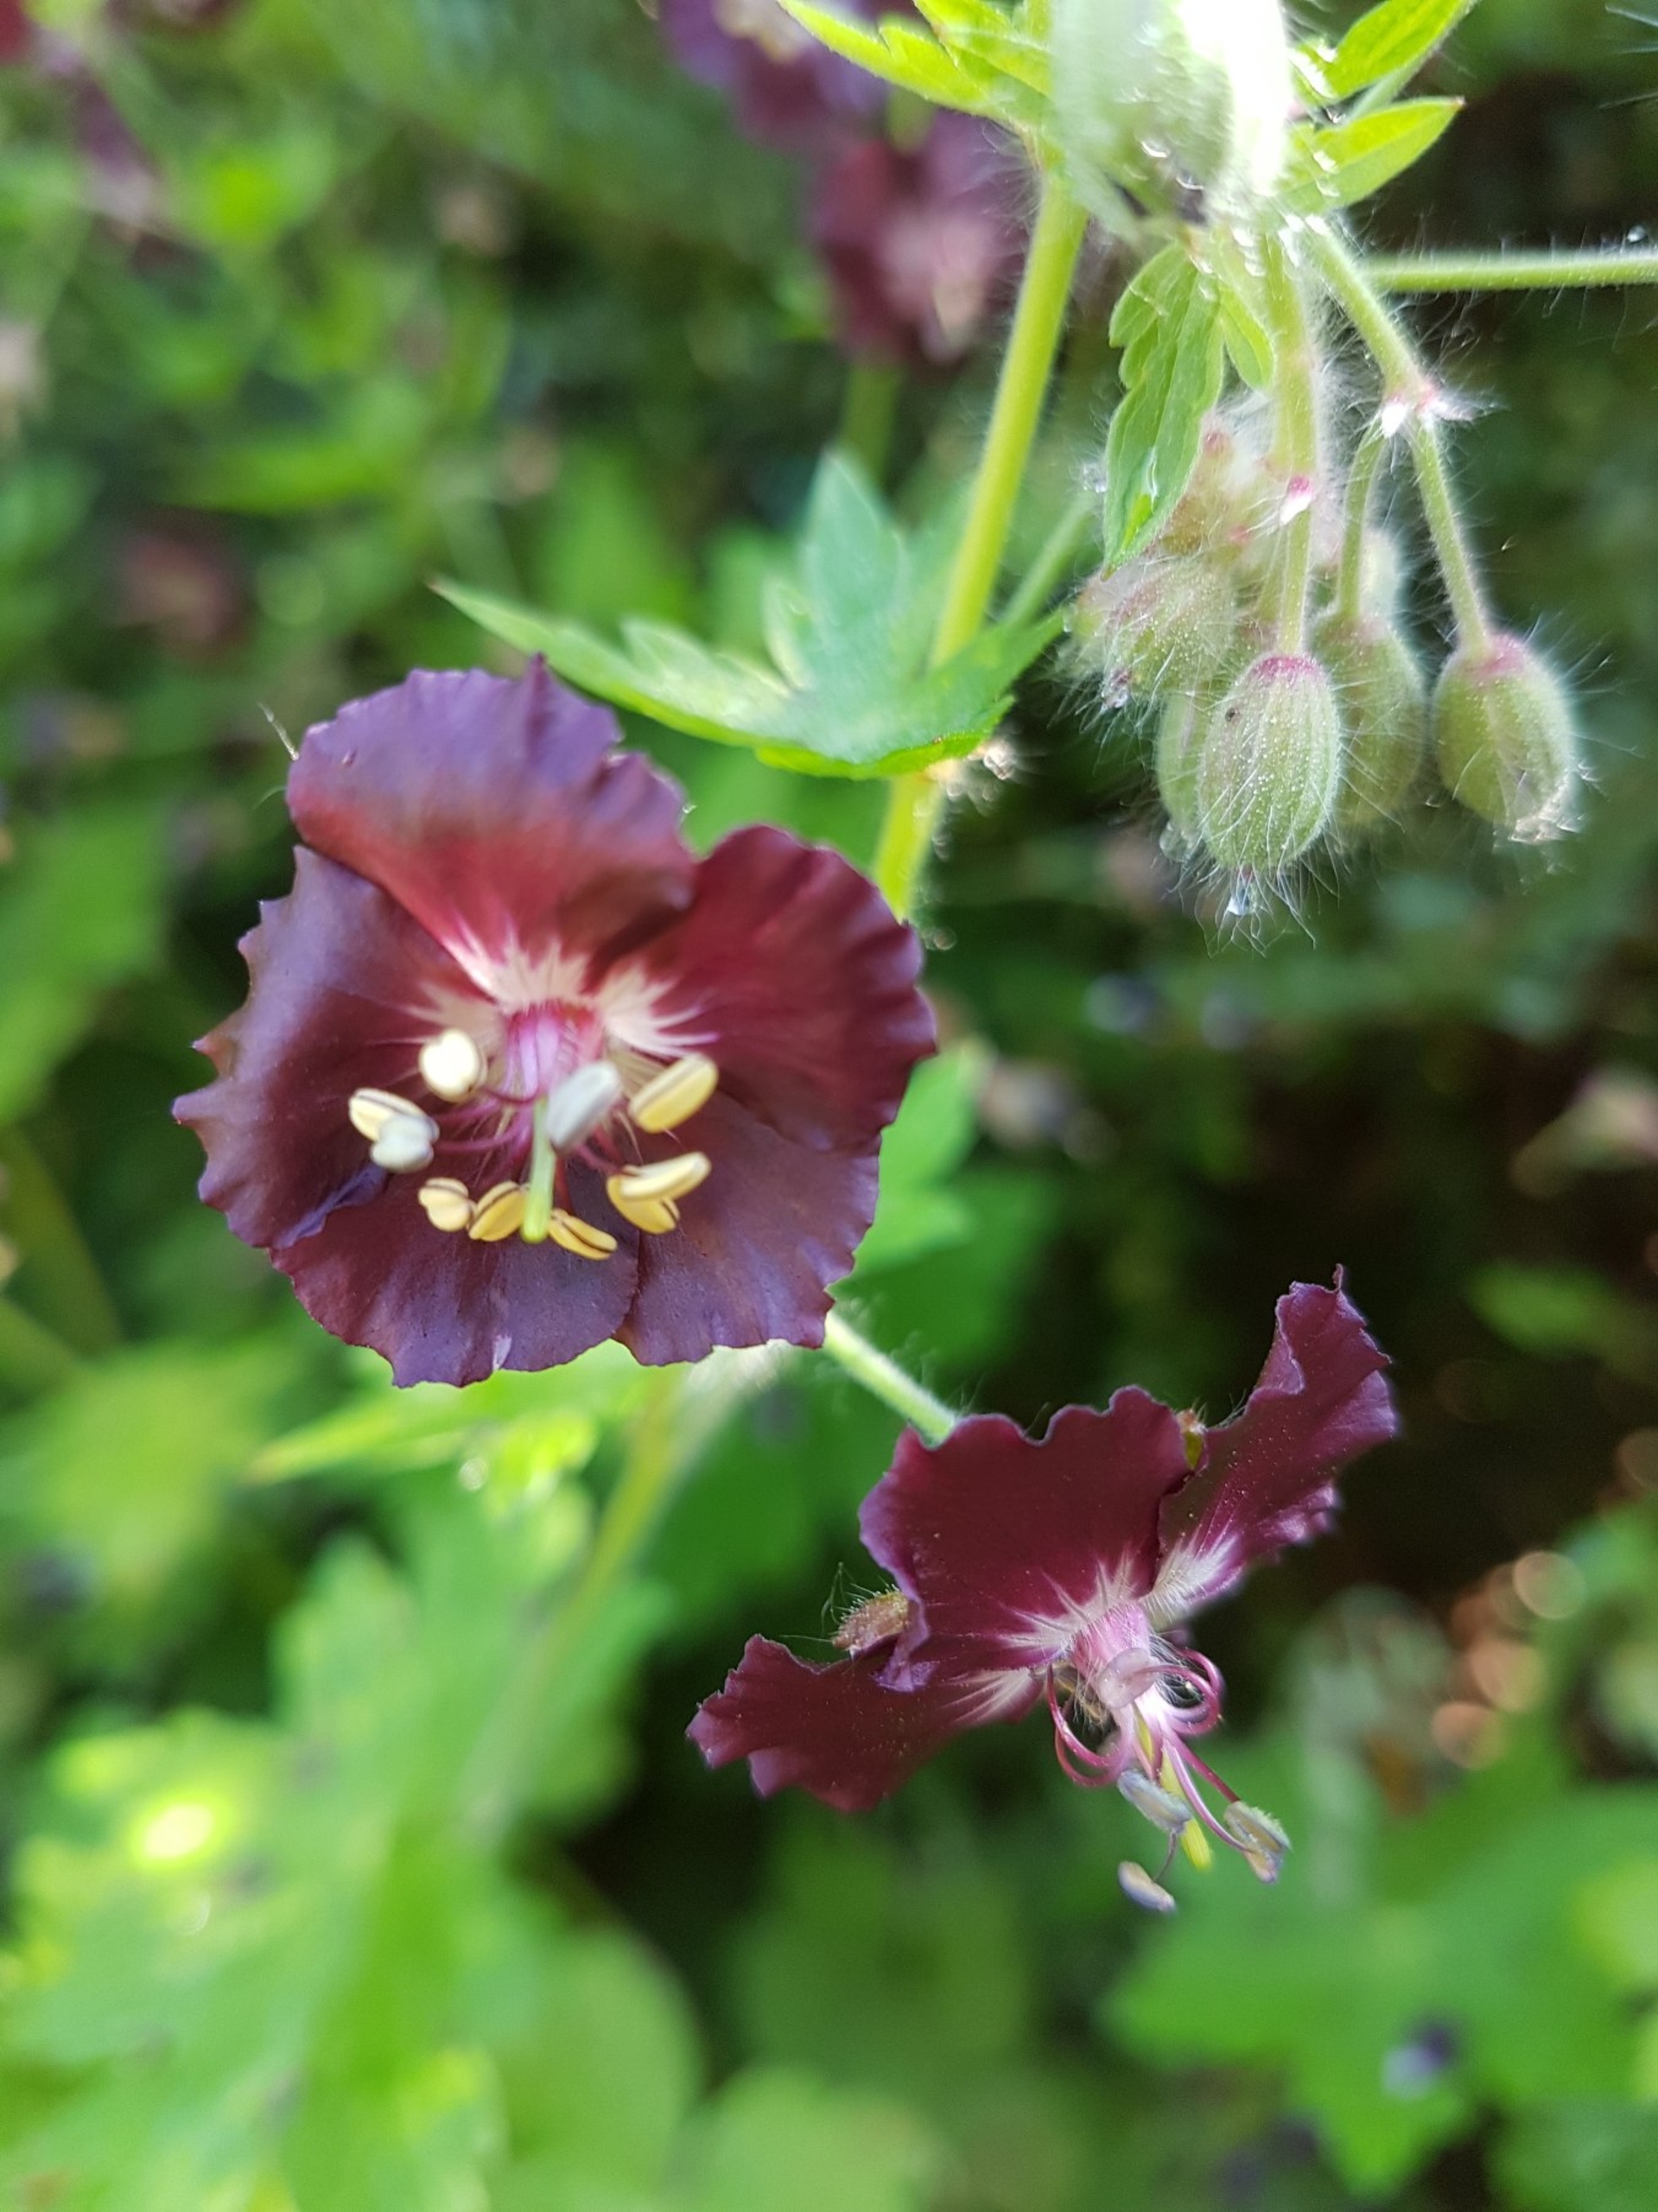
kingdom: Plantae
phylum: Tracheophyta
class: Magnoliopsida
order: Geraniales
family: Geraniaceae
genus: Geranium
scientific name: Geranium phaeum
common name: Bølgekronet storkenæb
